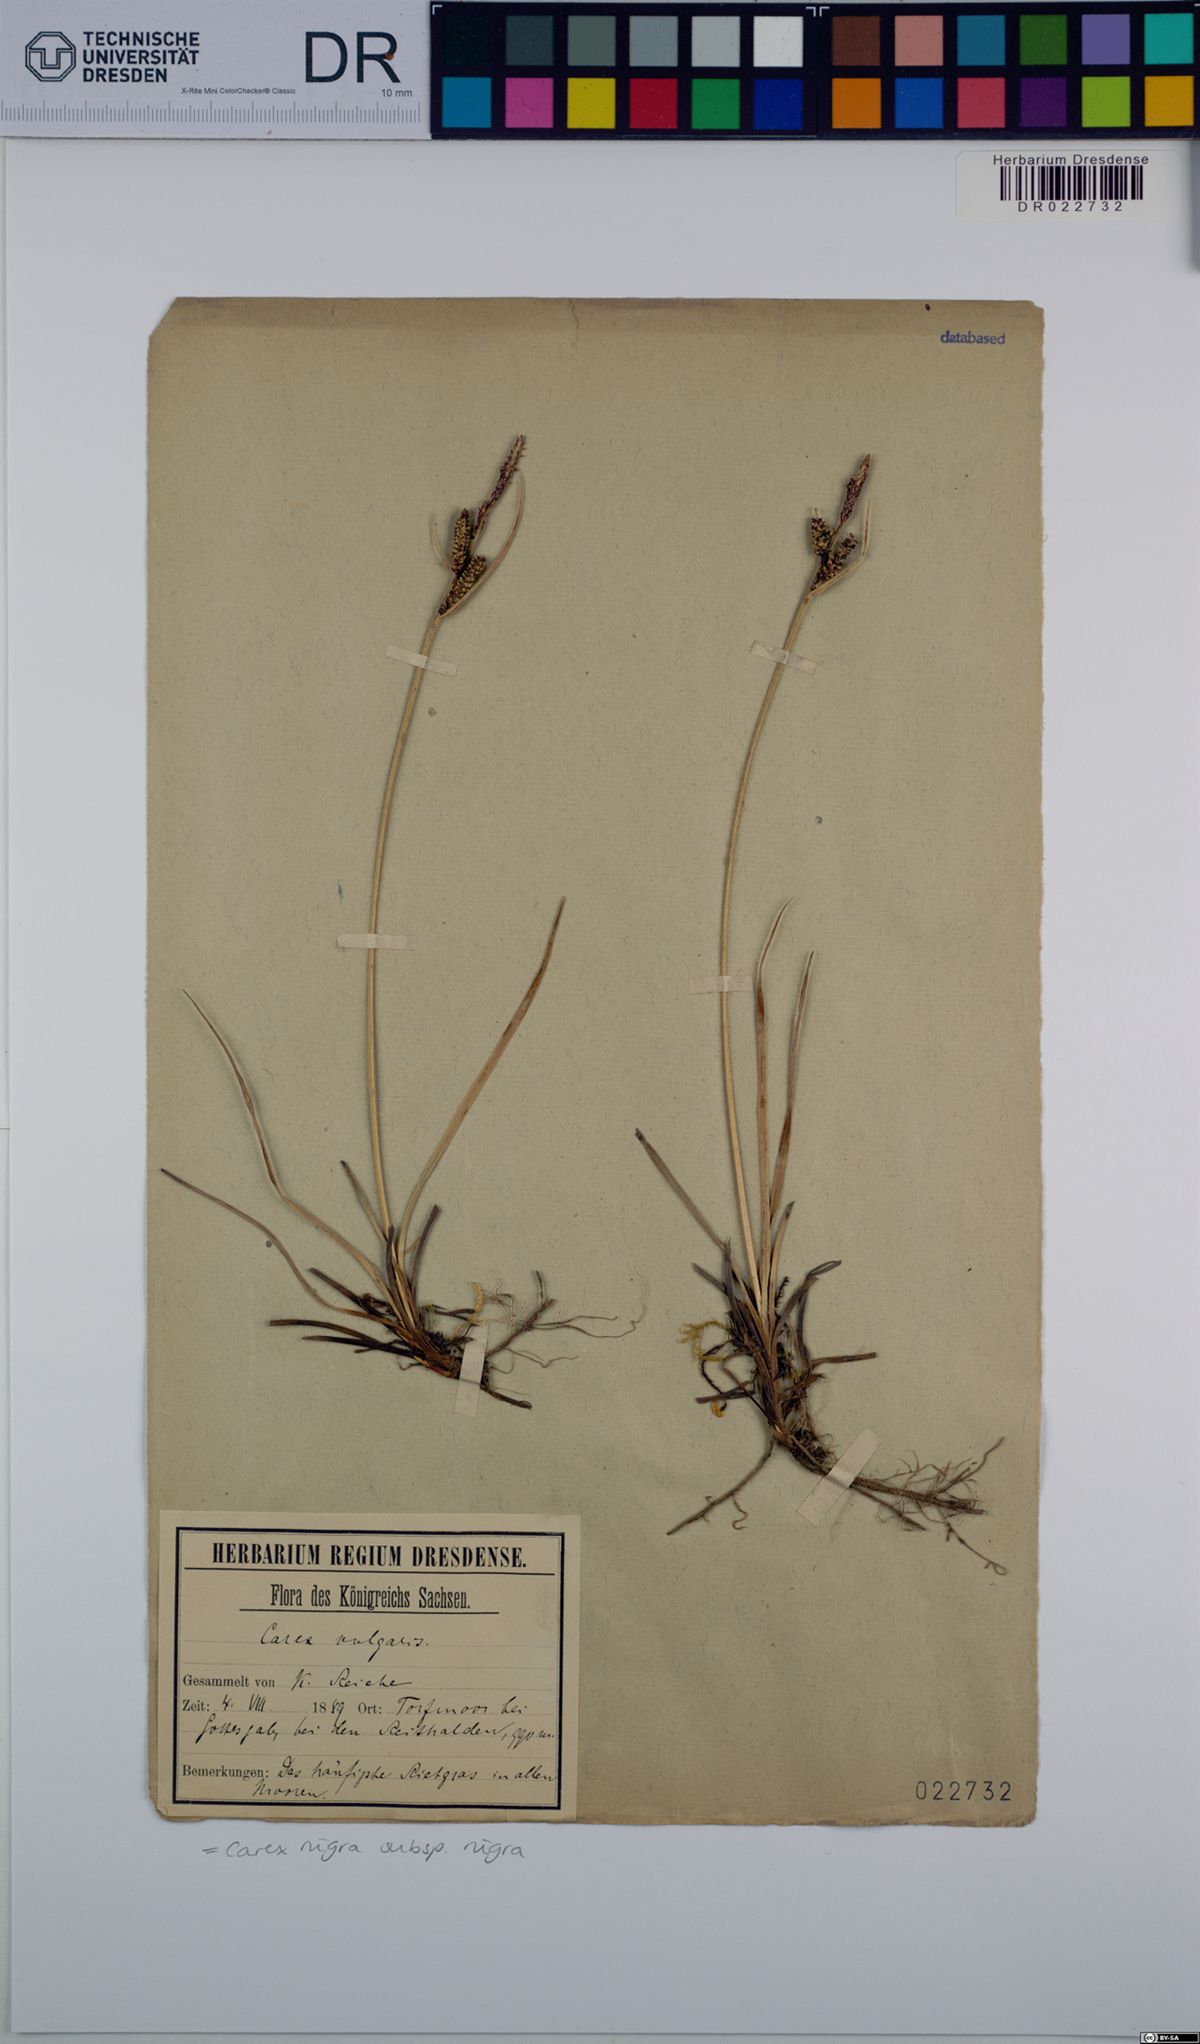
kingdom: Plantae
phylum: Tracheophyta
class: Liliopsida
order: Poales
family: Cyperaceae
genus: Carex
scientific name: Carex nigra
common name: Common sedge
